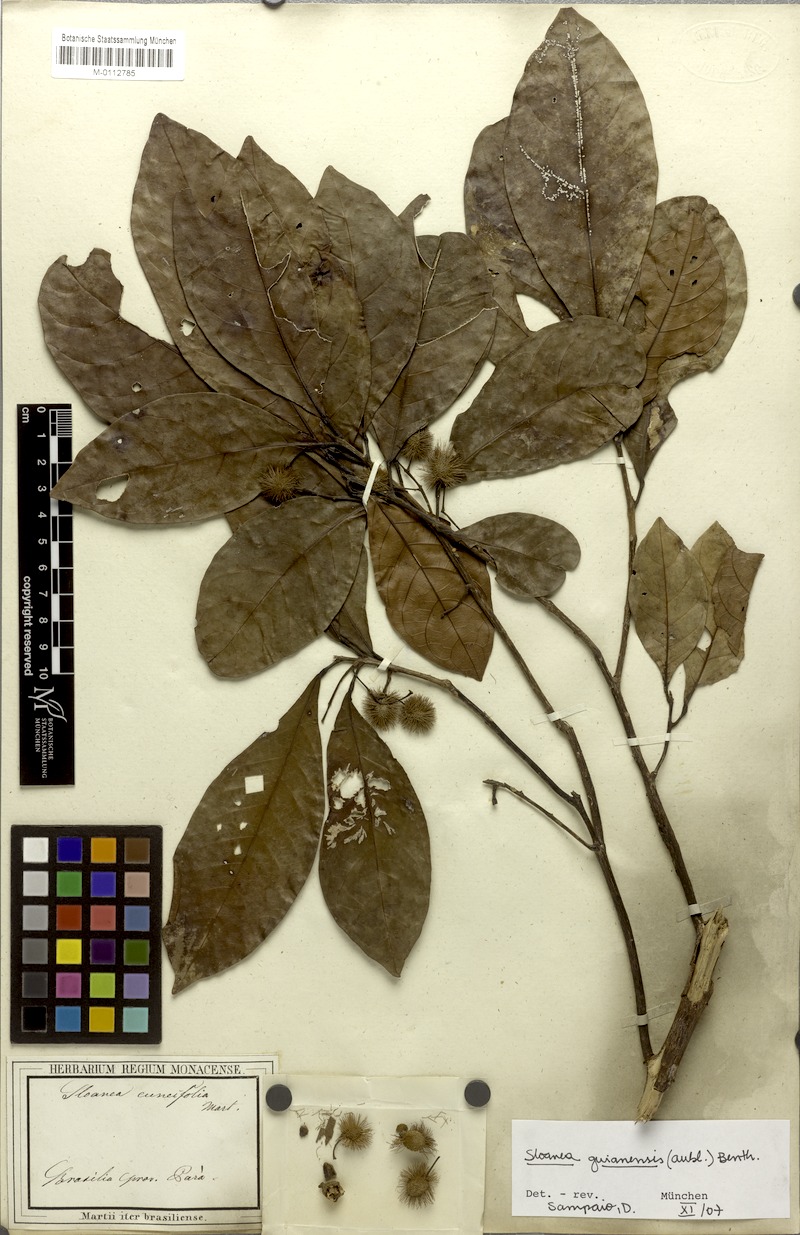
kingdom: Plantae
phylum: Tracheophyta
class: Magnoliopsida
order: Oxalidales
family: Elaeocarpaceae
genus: Sloanea
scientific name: Sloanea guianensis
